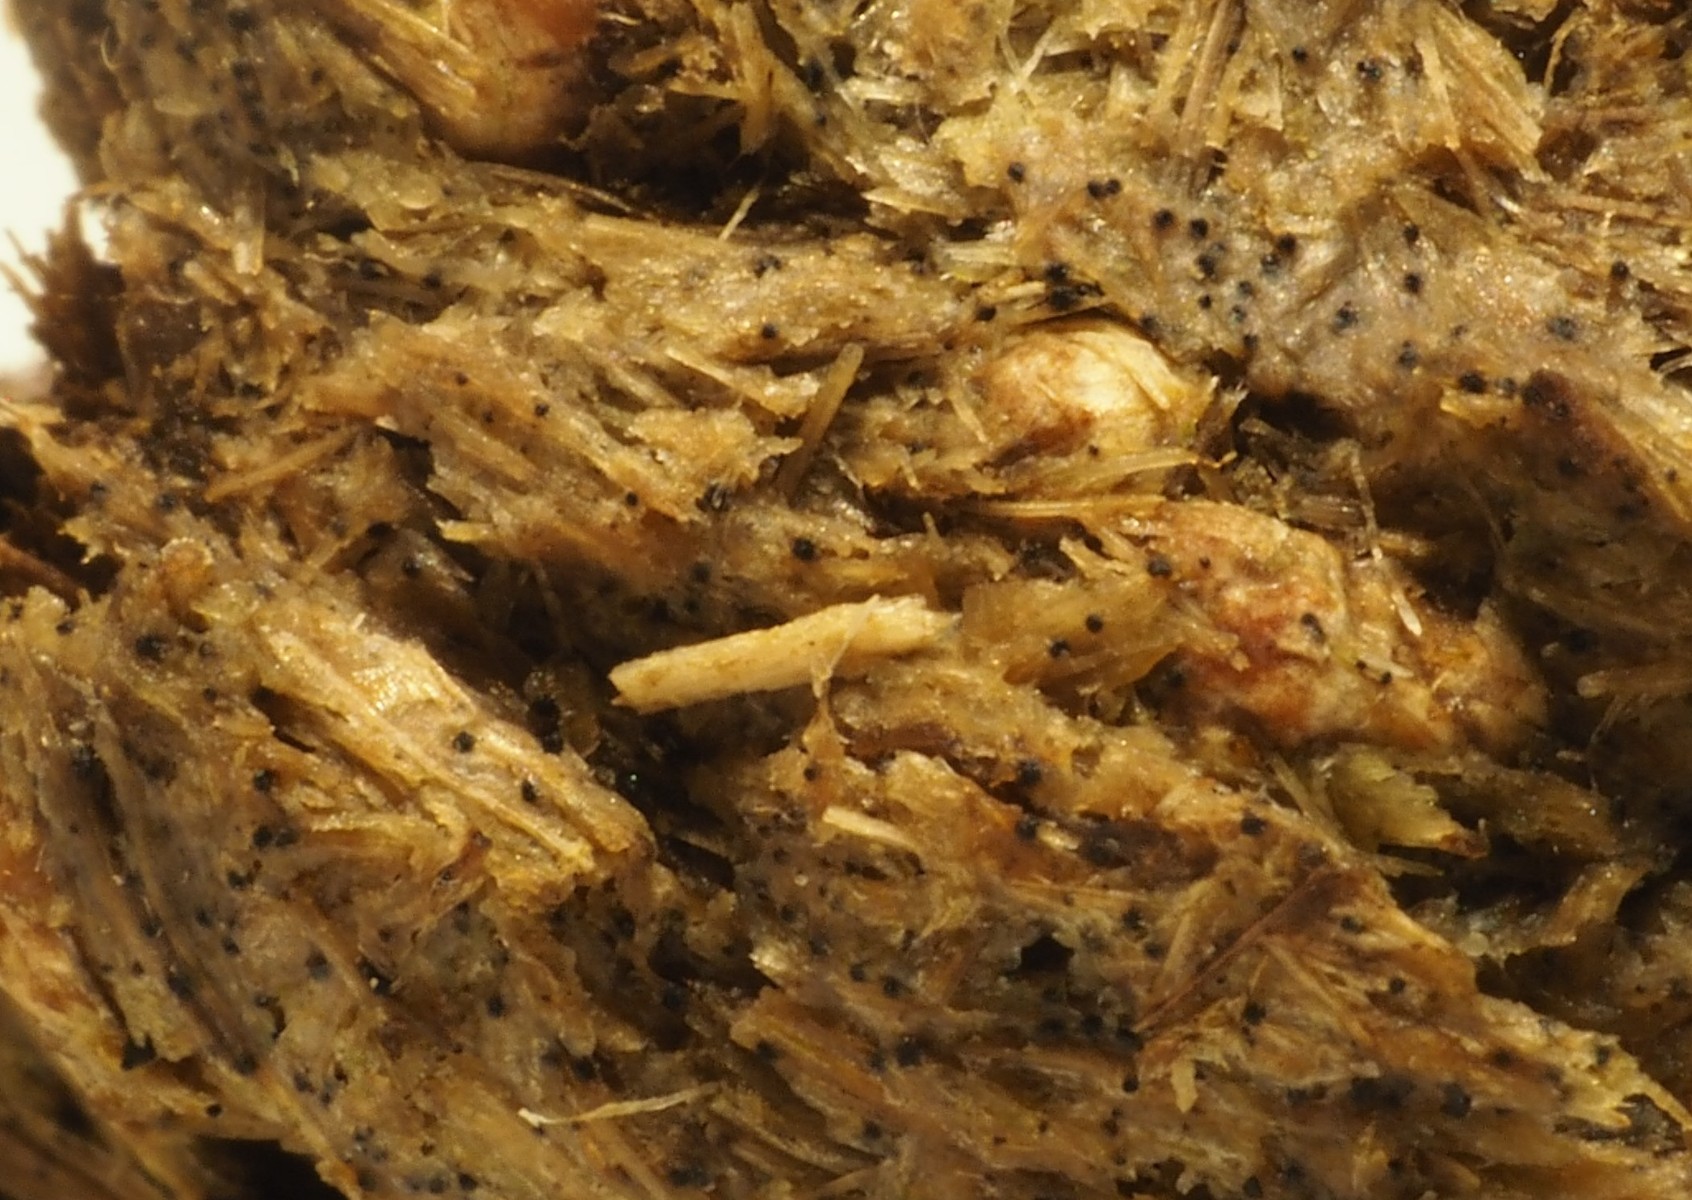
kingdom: Fungi
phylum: Ascomycota
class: Dothideomycetes
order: Pleosporales
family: Sporormiaceae
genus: Sporormiella
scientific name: Sporormiella
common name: knækspore
